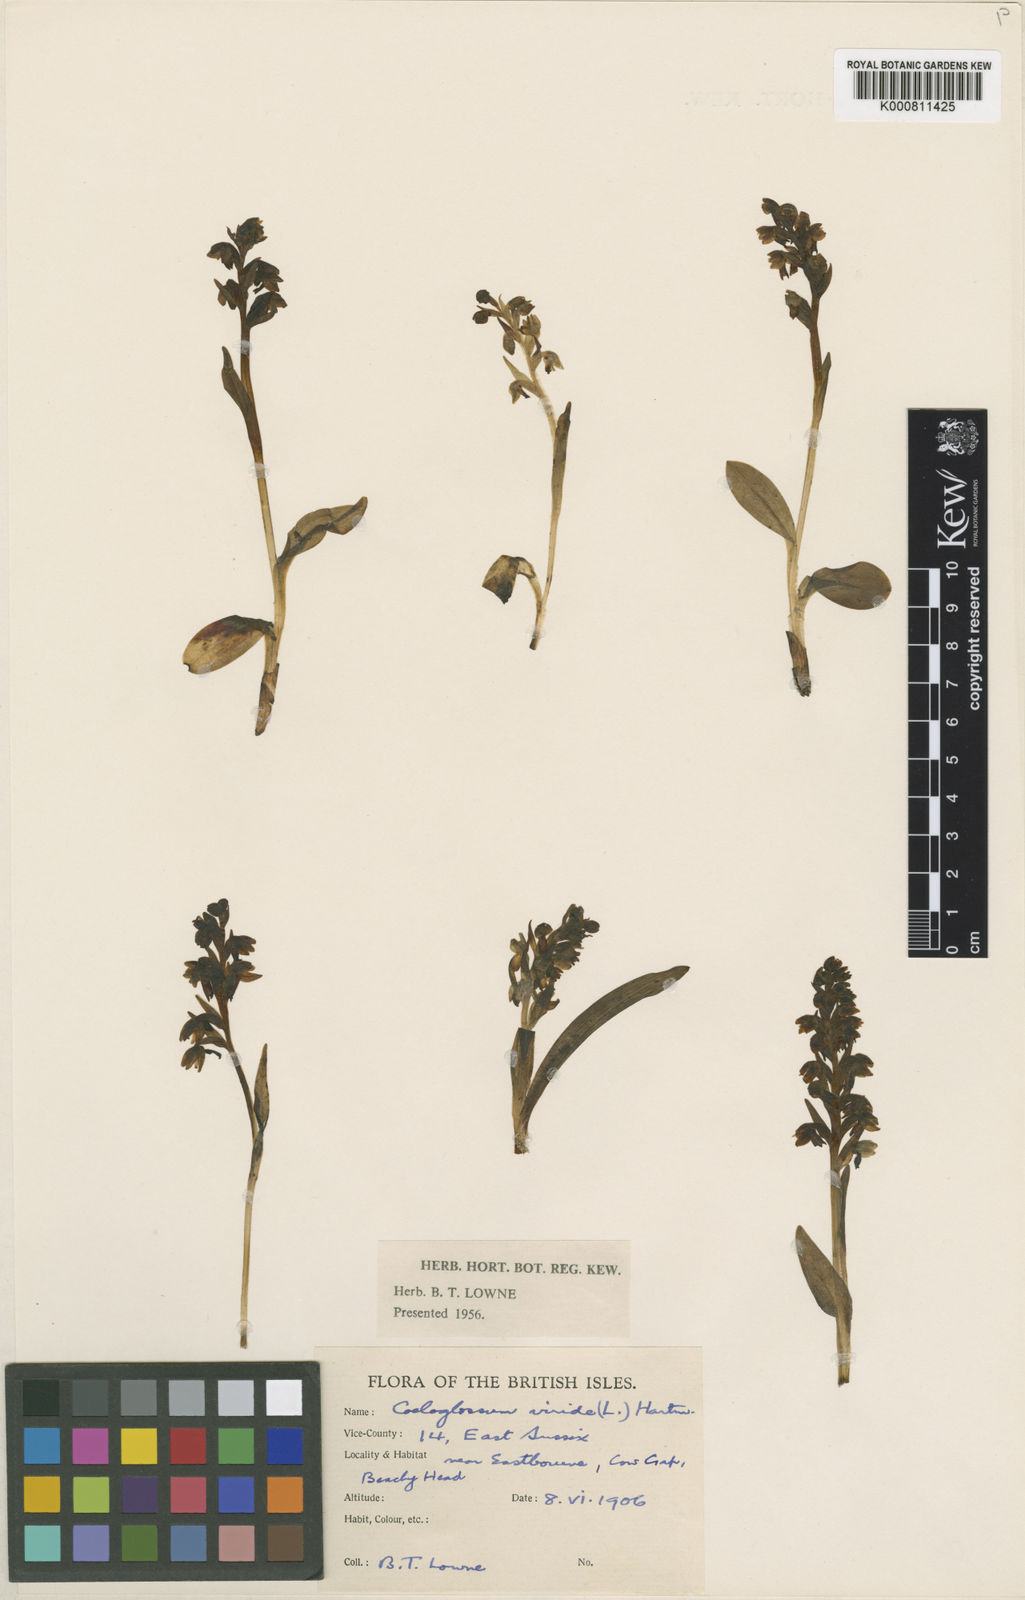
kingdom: Plantae
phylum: Tracheophyta
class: Liliopsida
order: Asparagales
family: Orchidaceae
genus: Dactylorhiza
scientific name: Dactylorhiza viridis
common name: Longbract frog orchid
